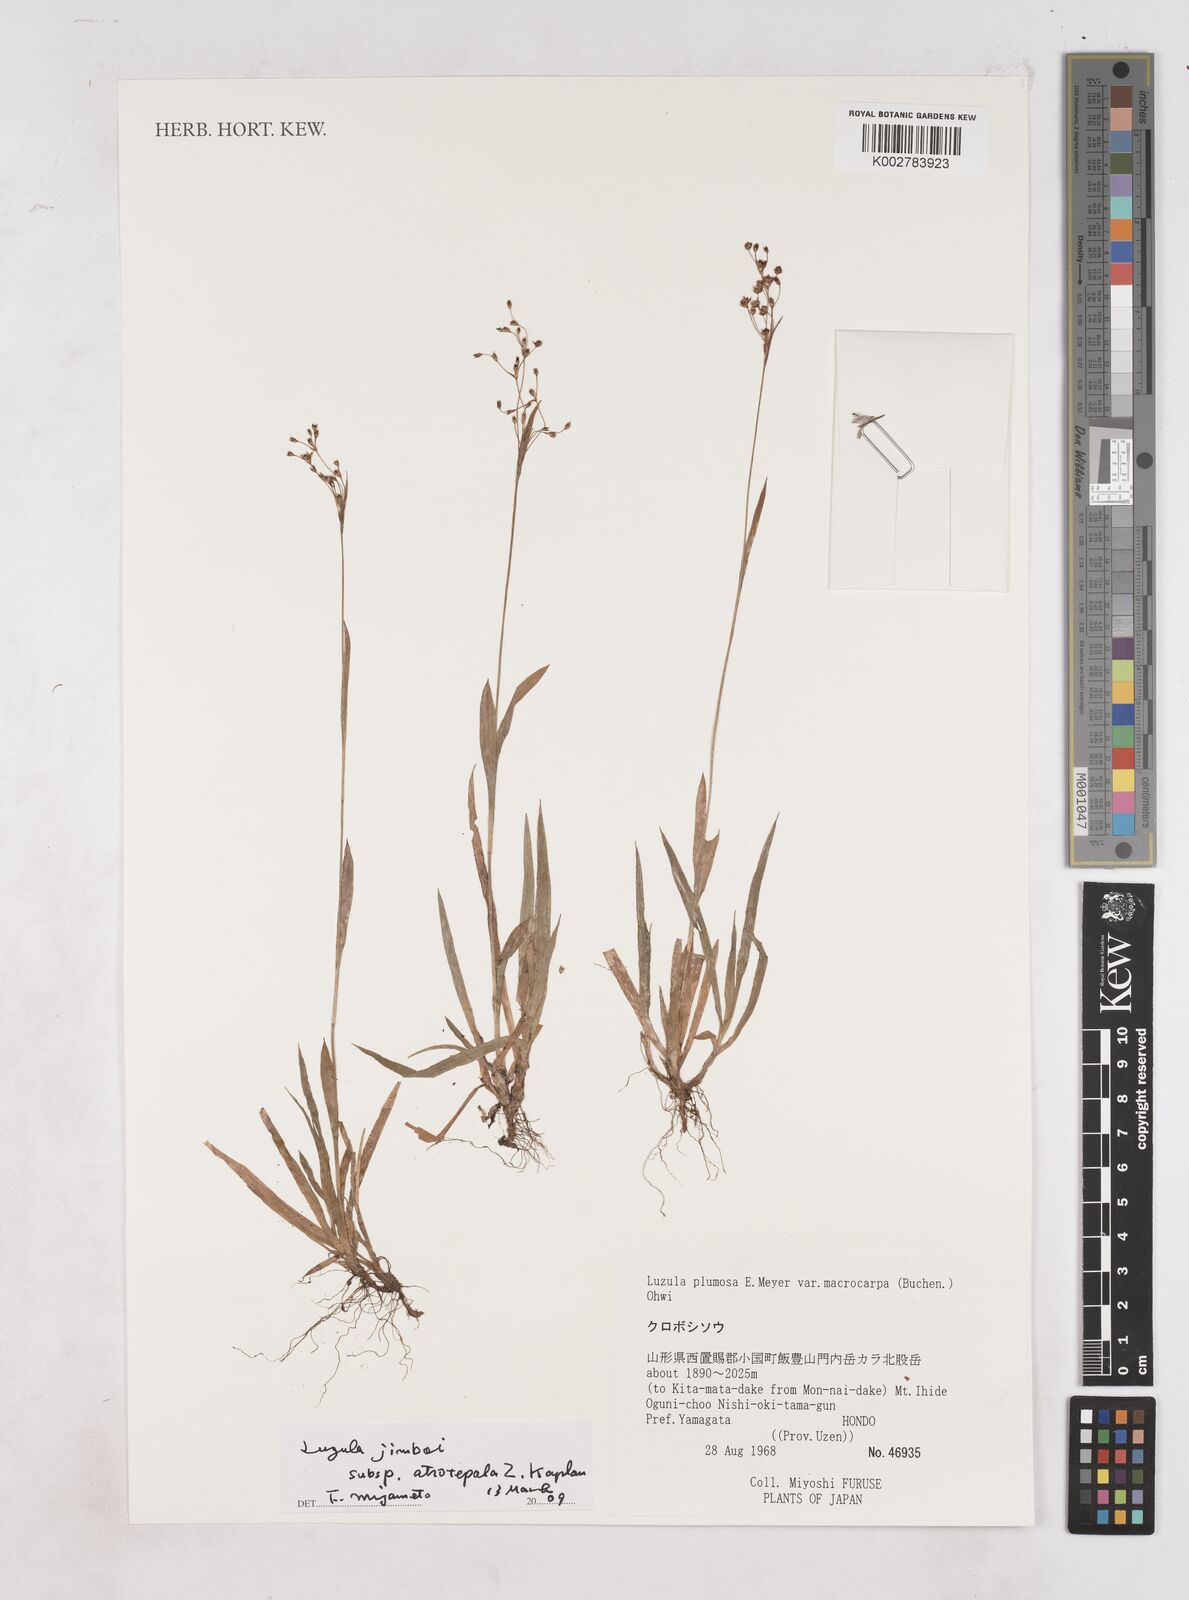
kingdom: Plantae
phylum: Tracheophyta
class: Liliopsida
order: Poales
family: Juncaceae
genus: Luzula
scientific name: Luzula plumosa
